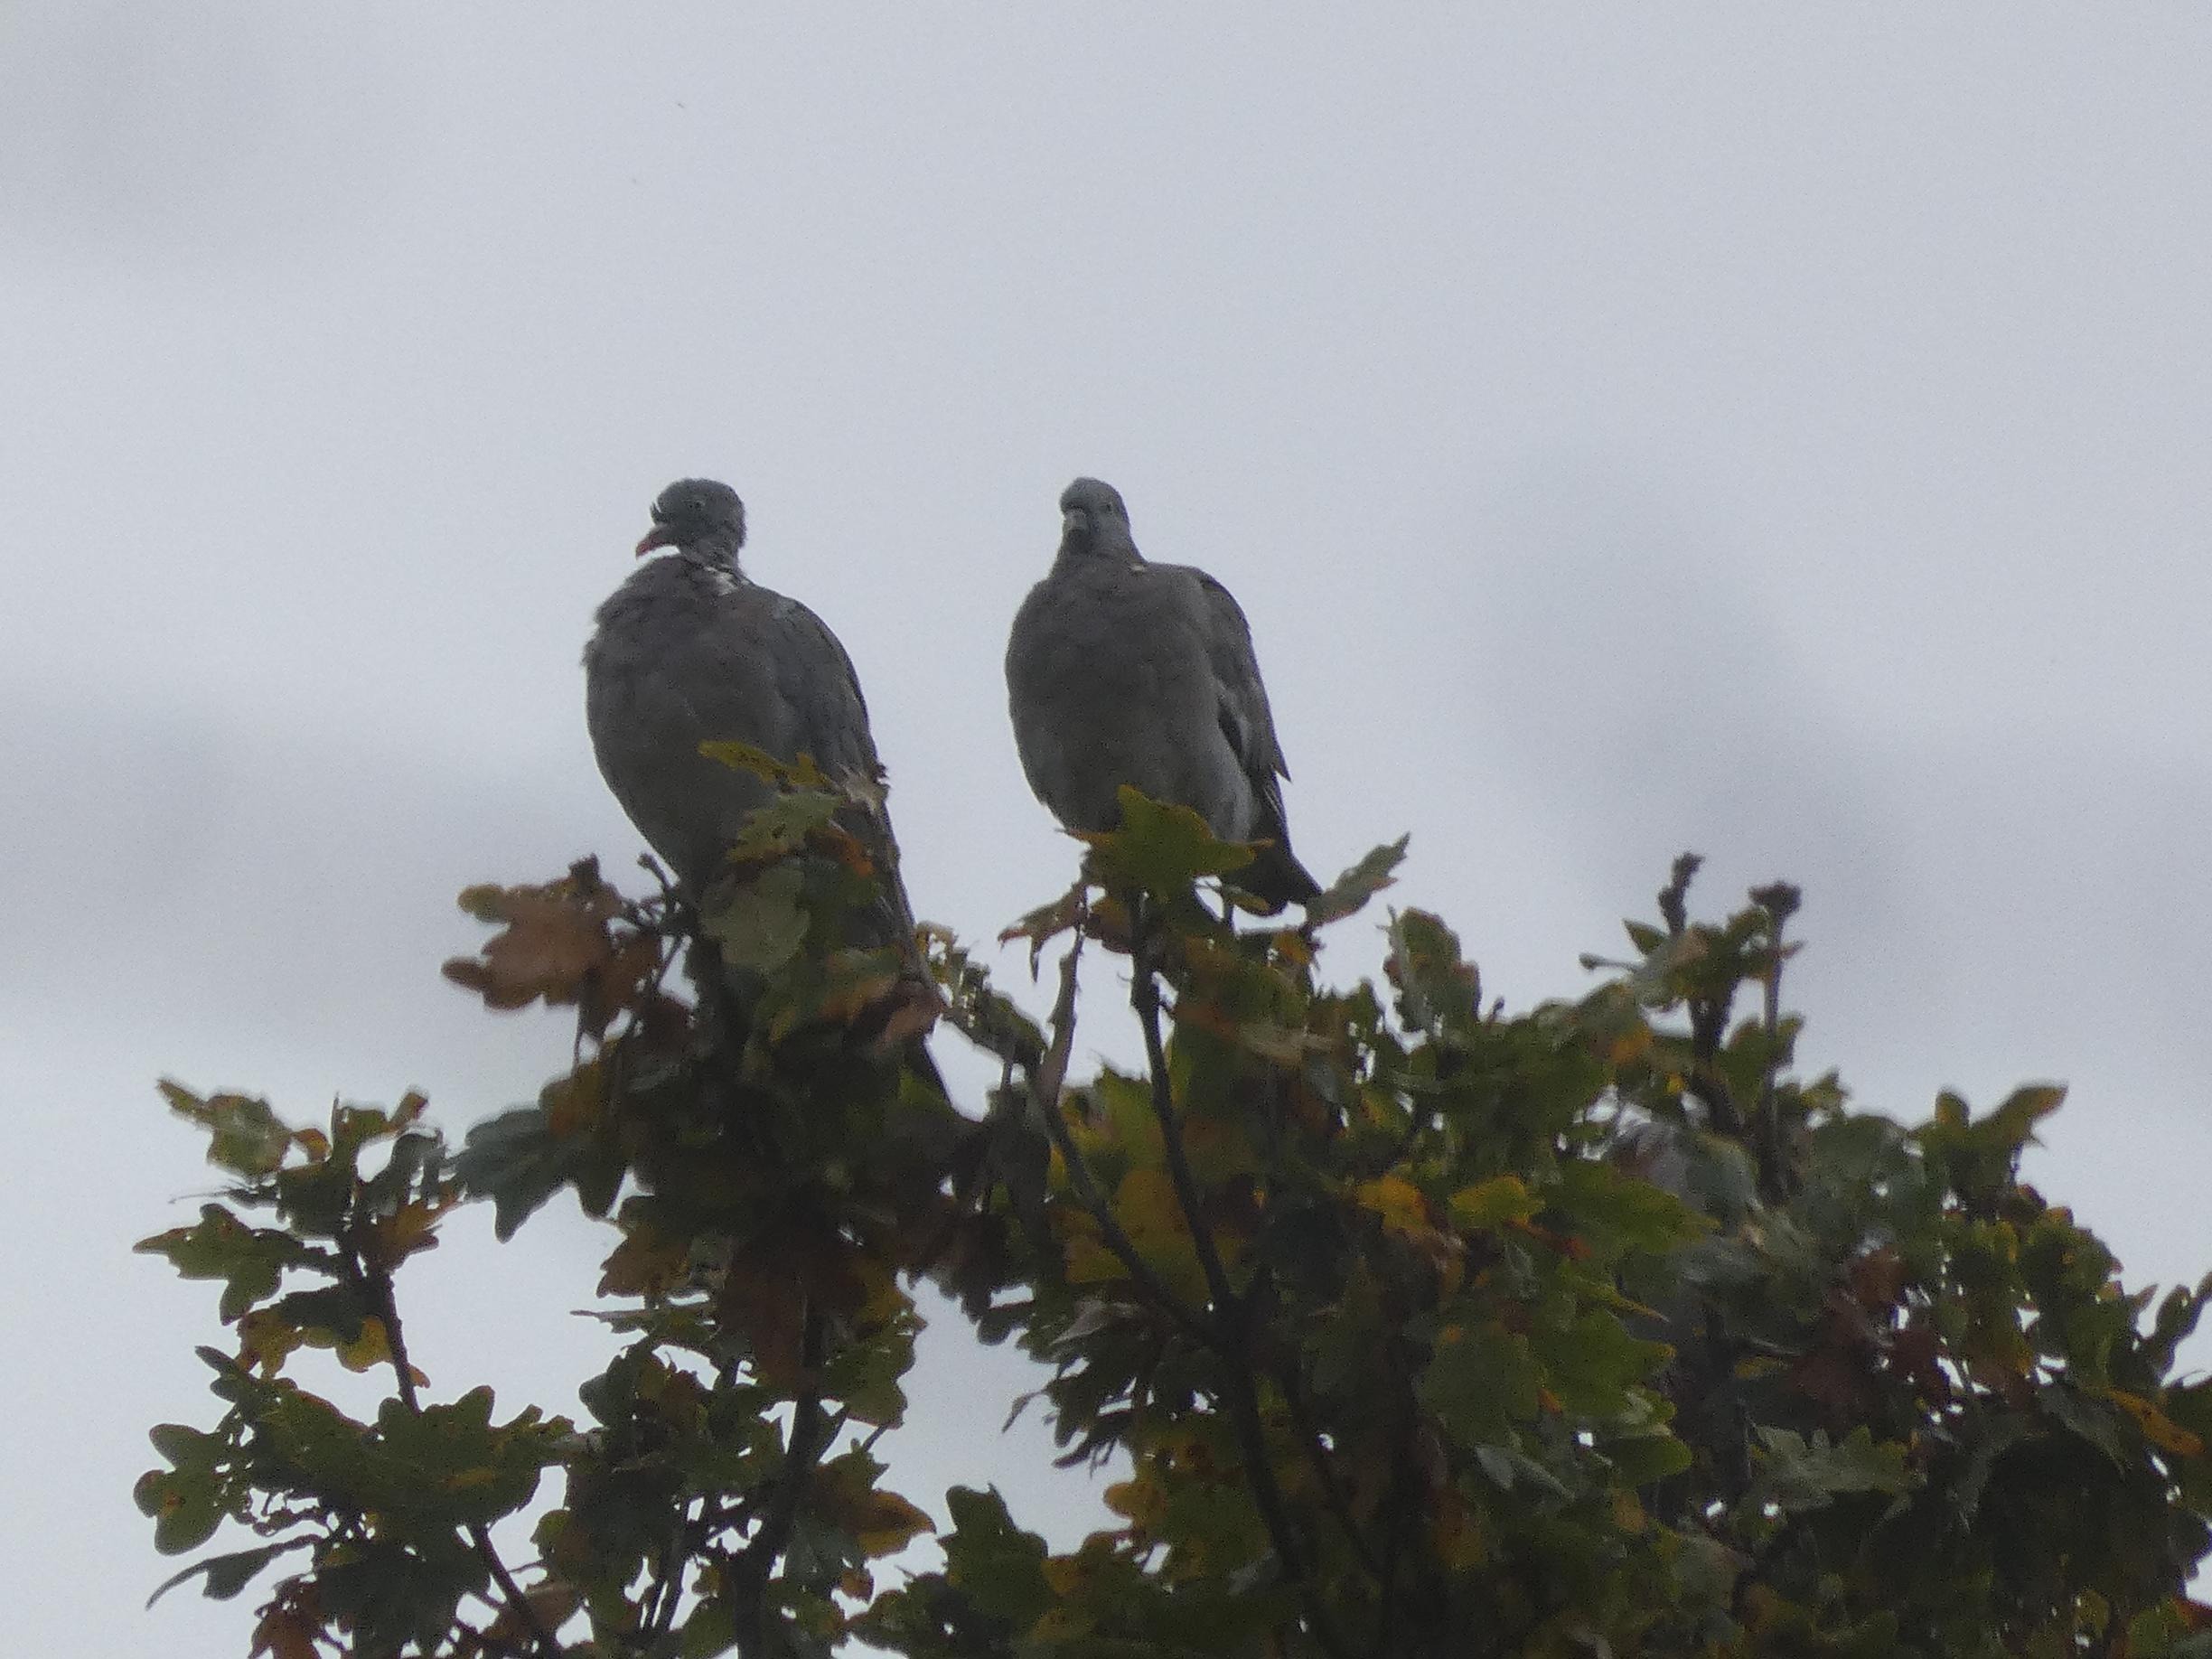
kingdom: Animalia
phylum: Chordata
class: Aves
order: Columbiformes
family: Columbidae
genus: Columba
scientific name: Columba palumbus
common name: Ringdue
